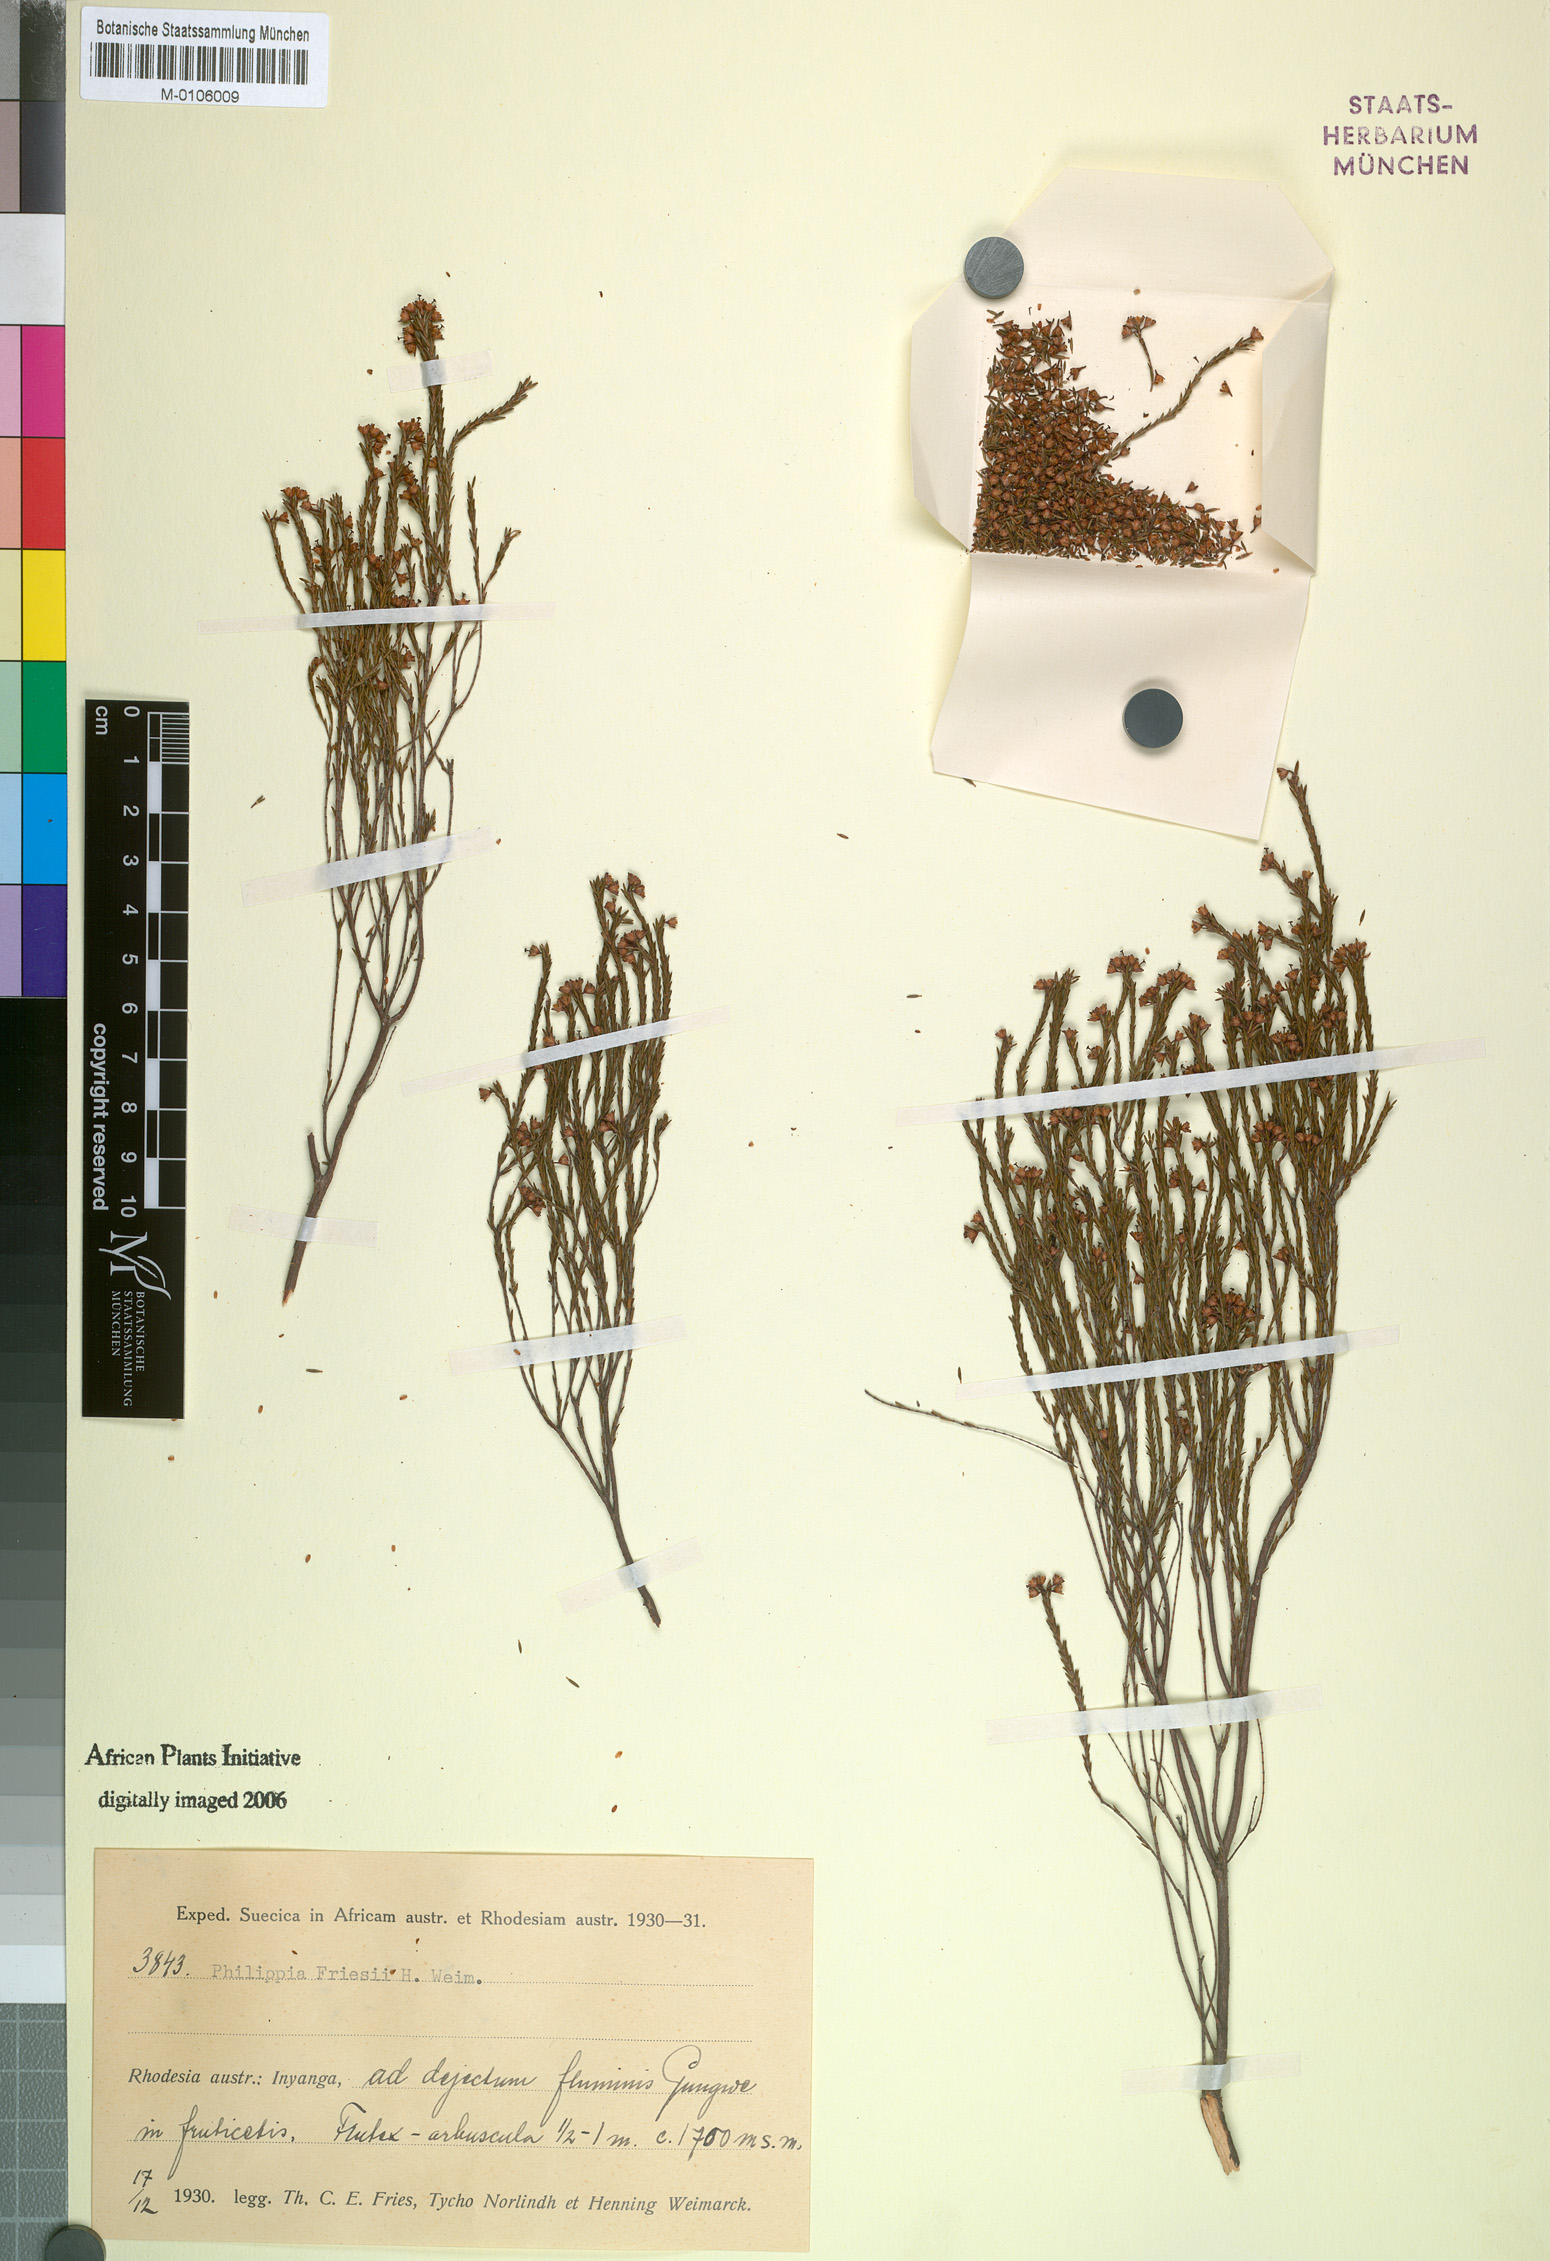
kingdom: Plantae
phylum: Tracheophyta
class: Magnoliopsida
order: Ericales
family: Ericaceae
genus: Erica
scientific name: Erica simii
